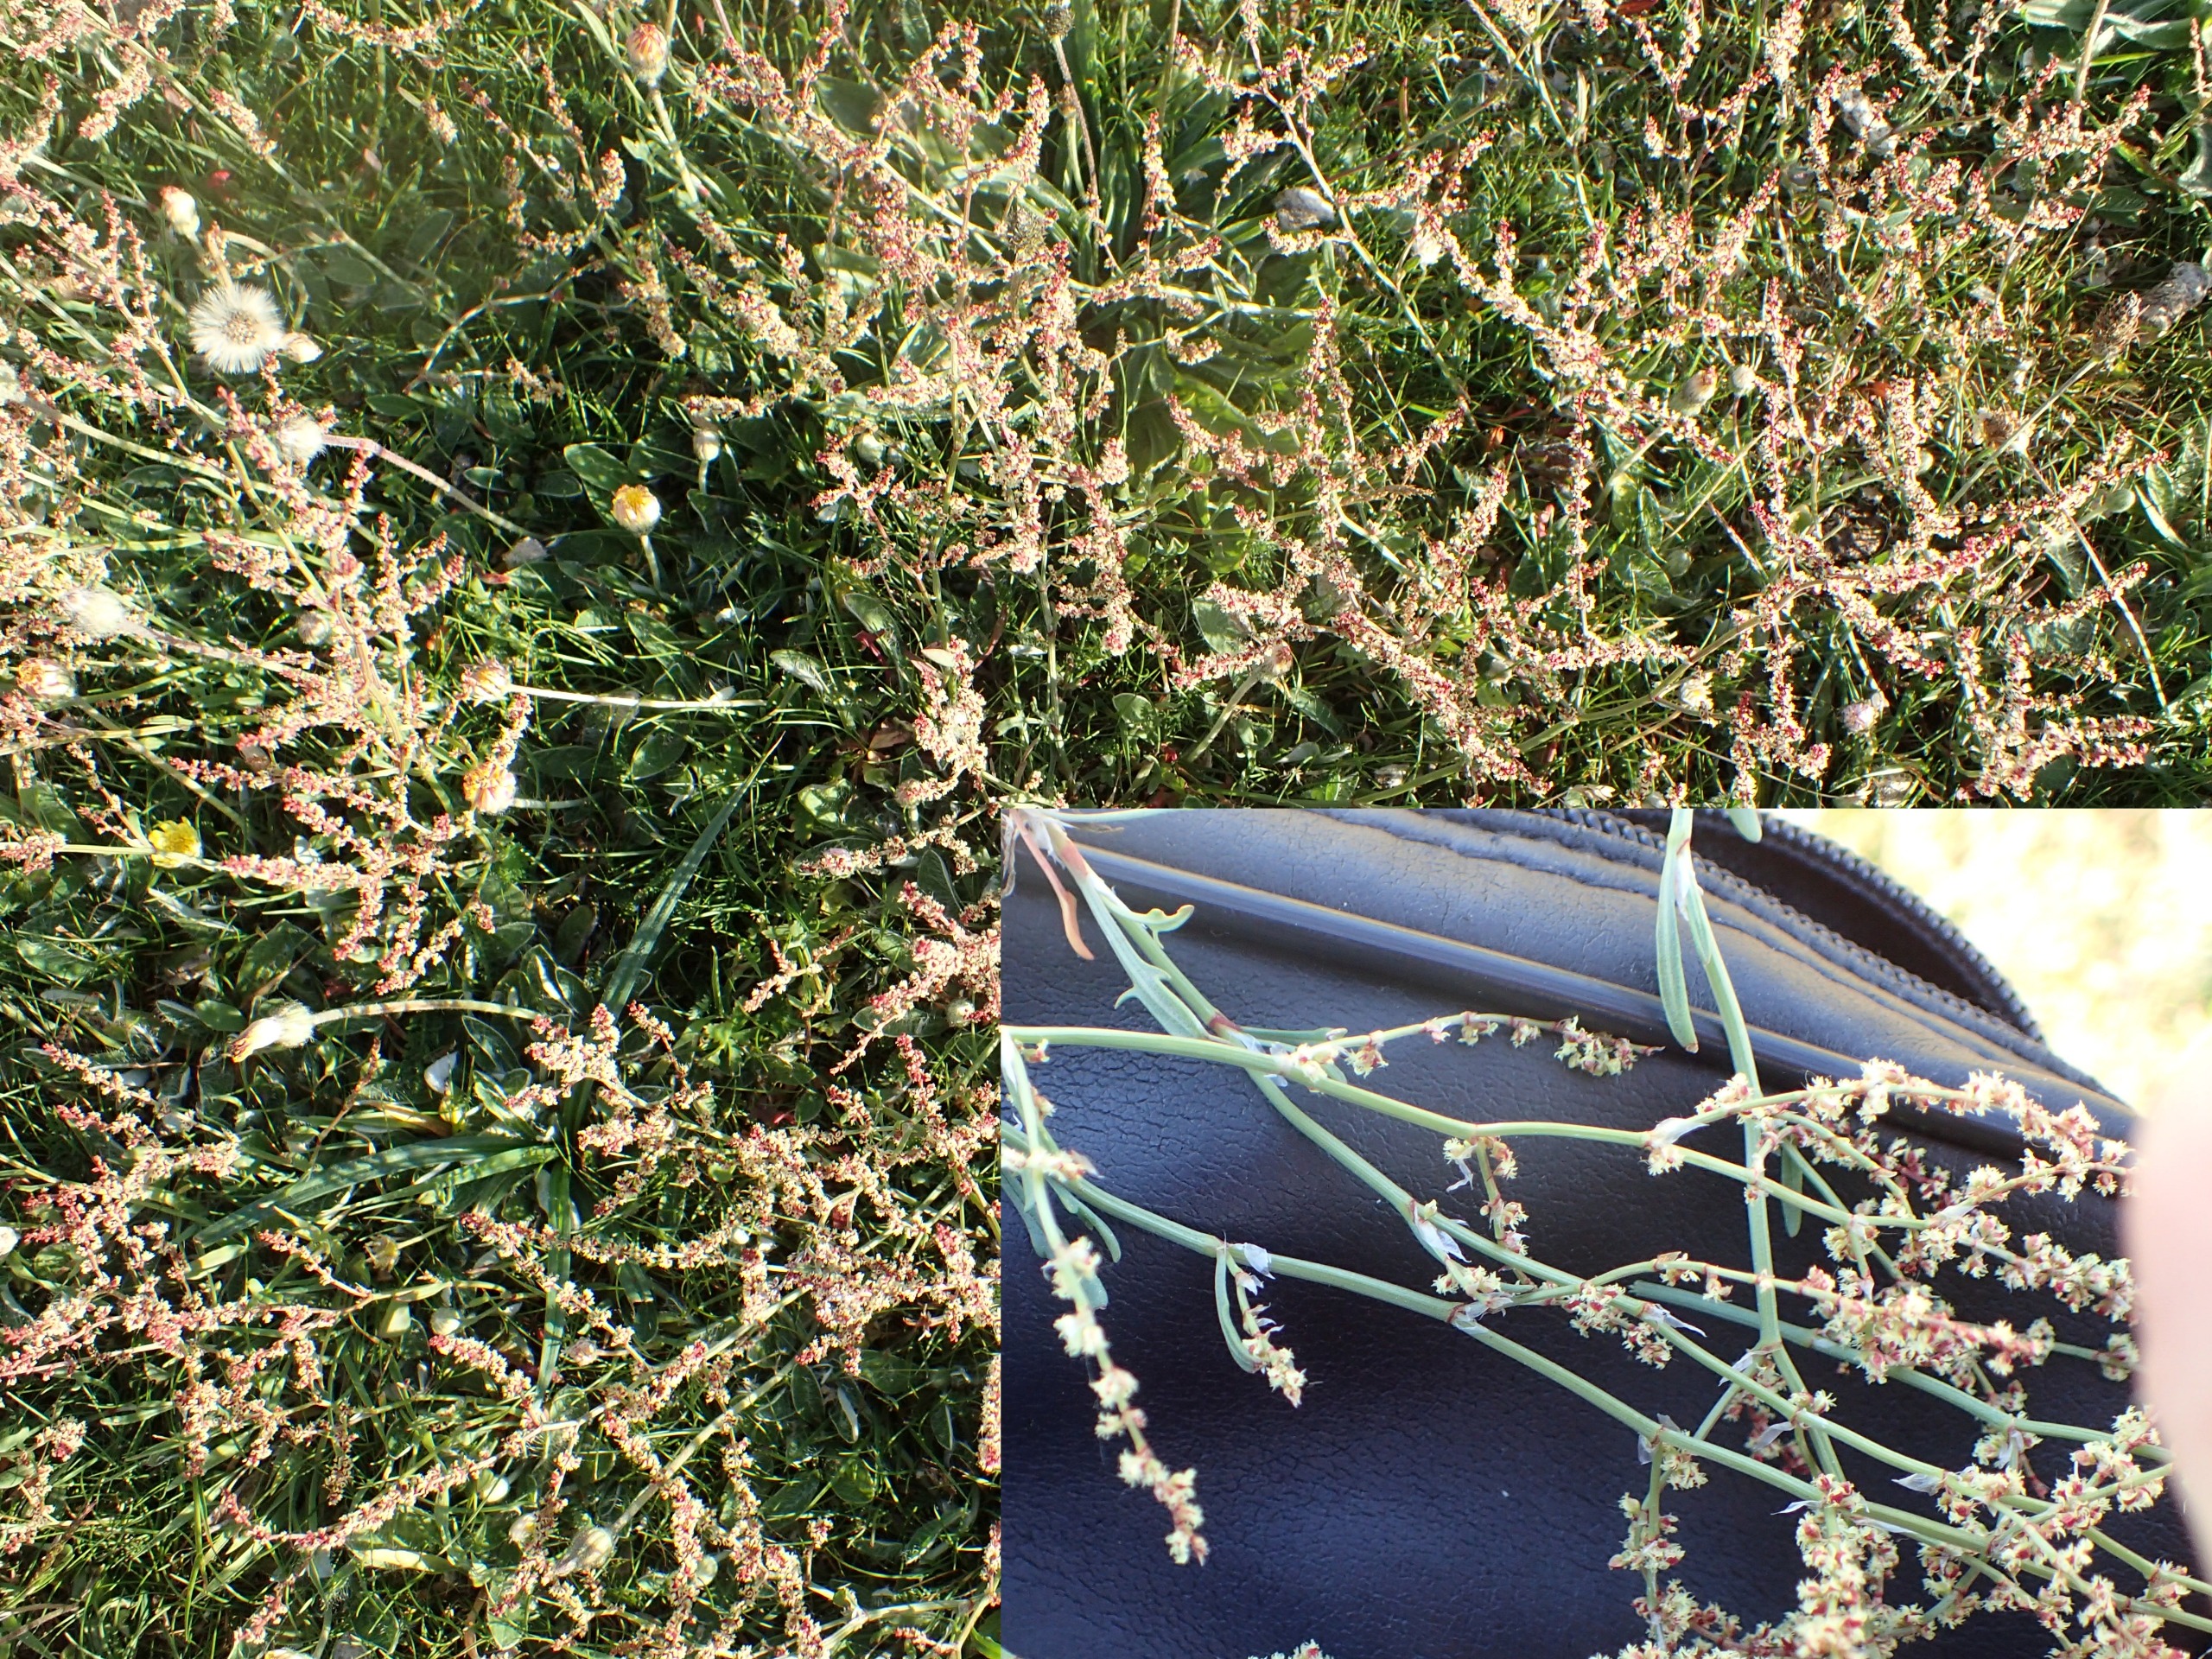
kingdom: Plantae
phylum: Tracheophyta
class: Magnoliopsida
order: Caryophyllales
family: Polygonaceae
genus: Rumex
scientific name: Rumex acetosella
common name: Rødknæ
